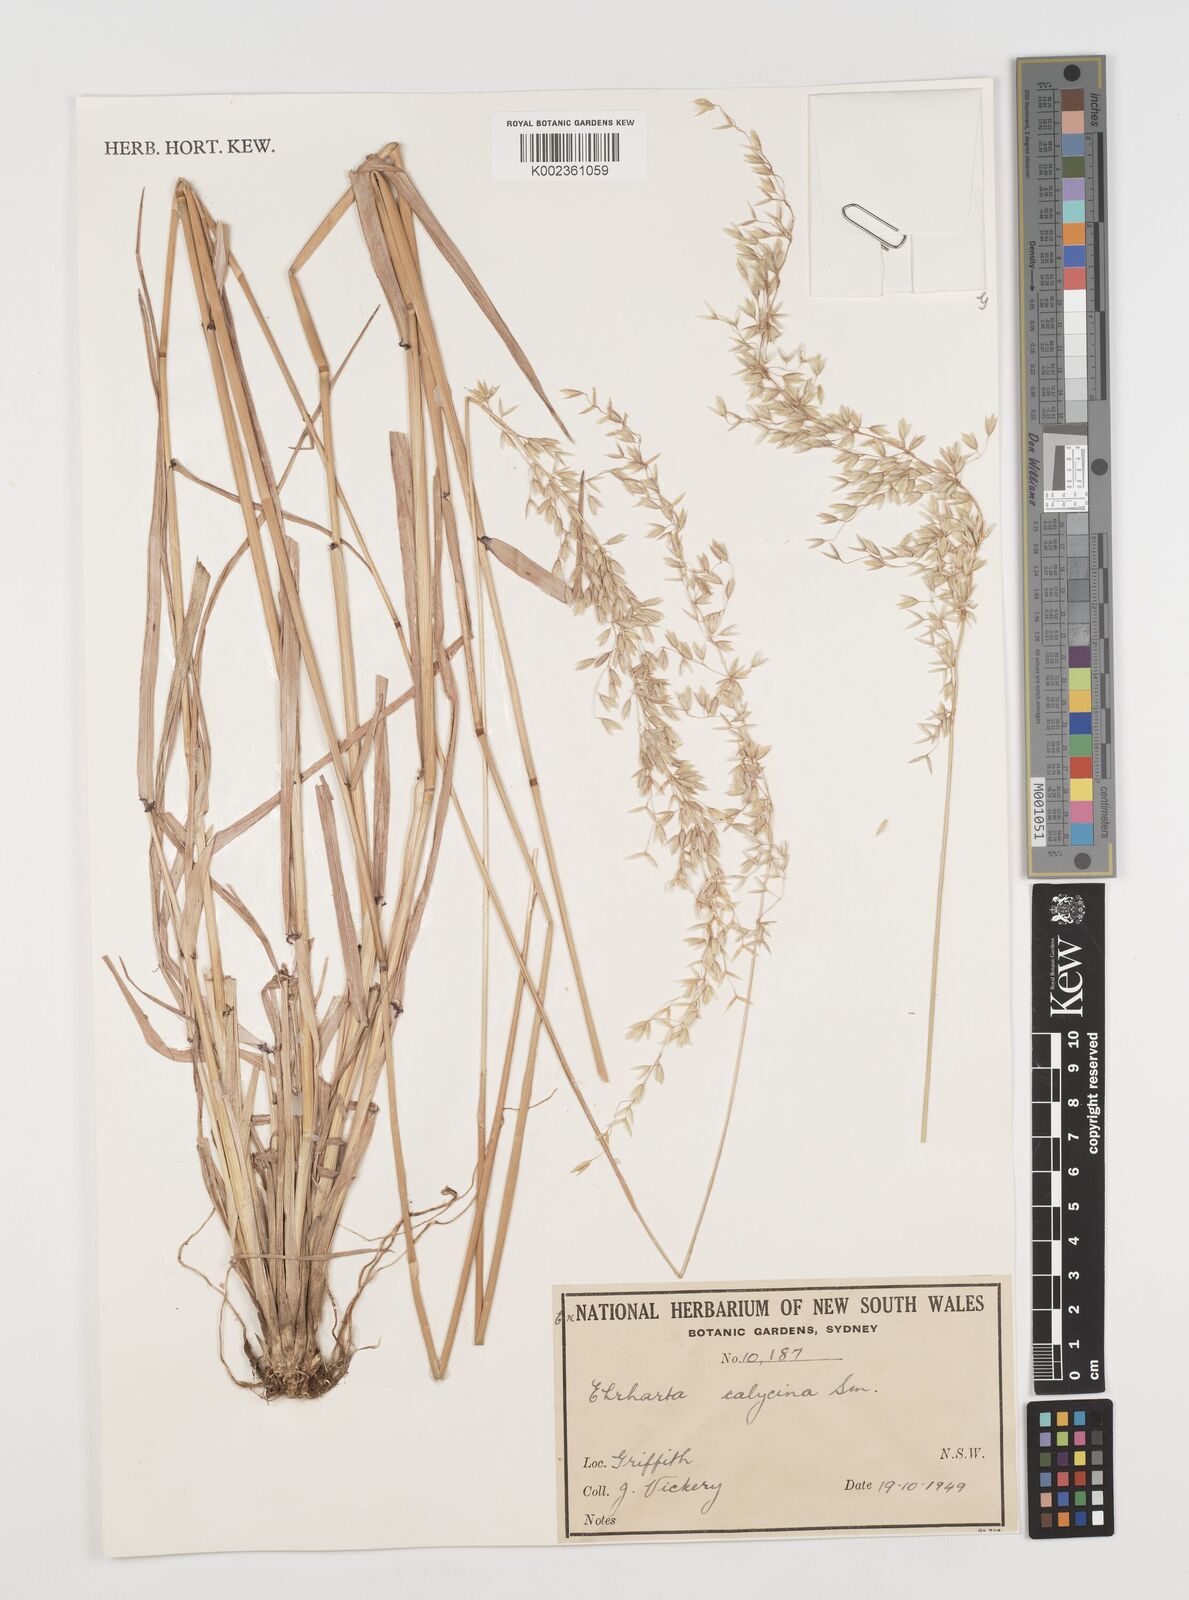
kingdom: Plantae
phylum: Tracheophyta
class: Liliopsida
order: Poales
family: Poaceae
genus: Ehrharta
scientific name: Ehrharta calycina
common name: Perennial veldtgrass
